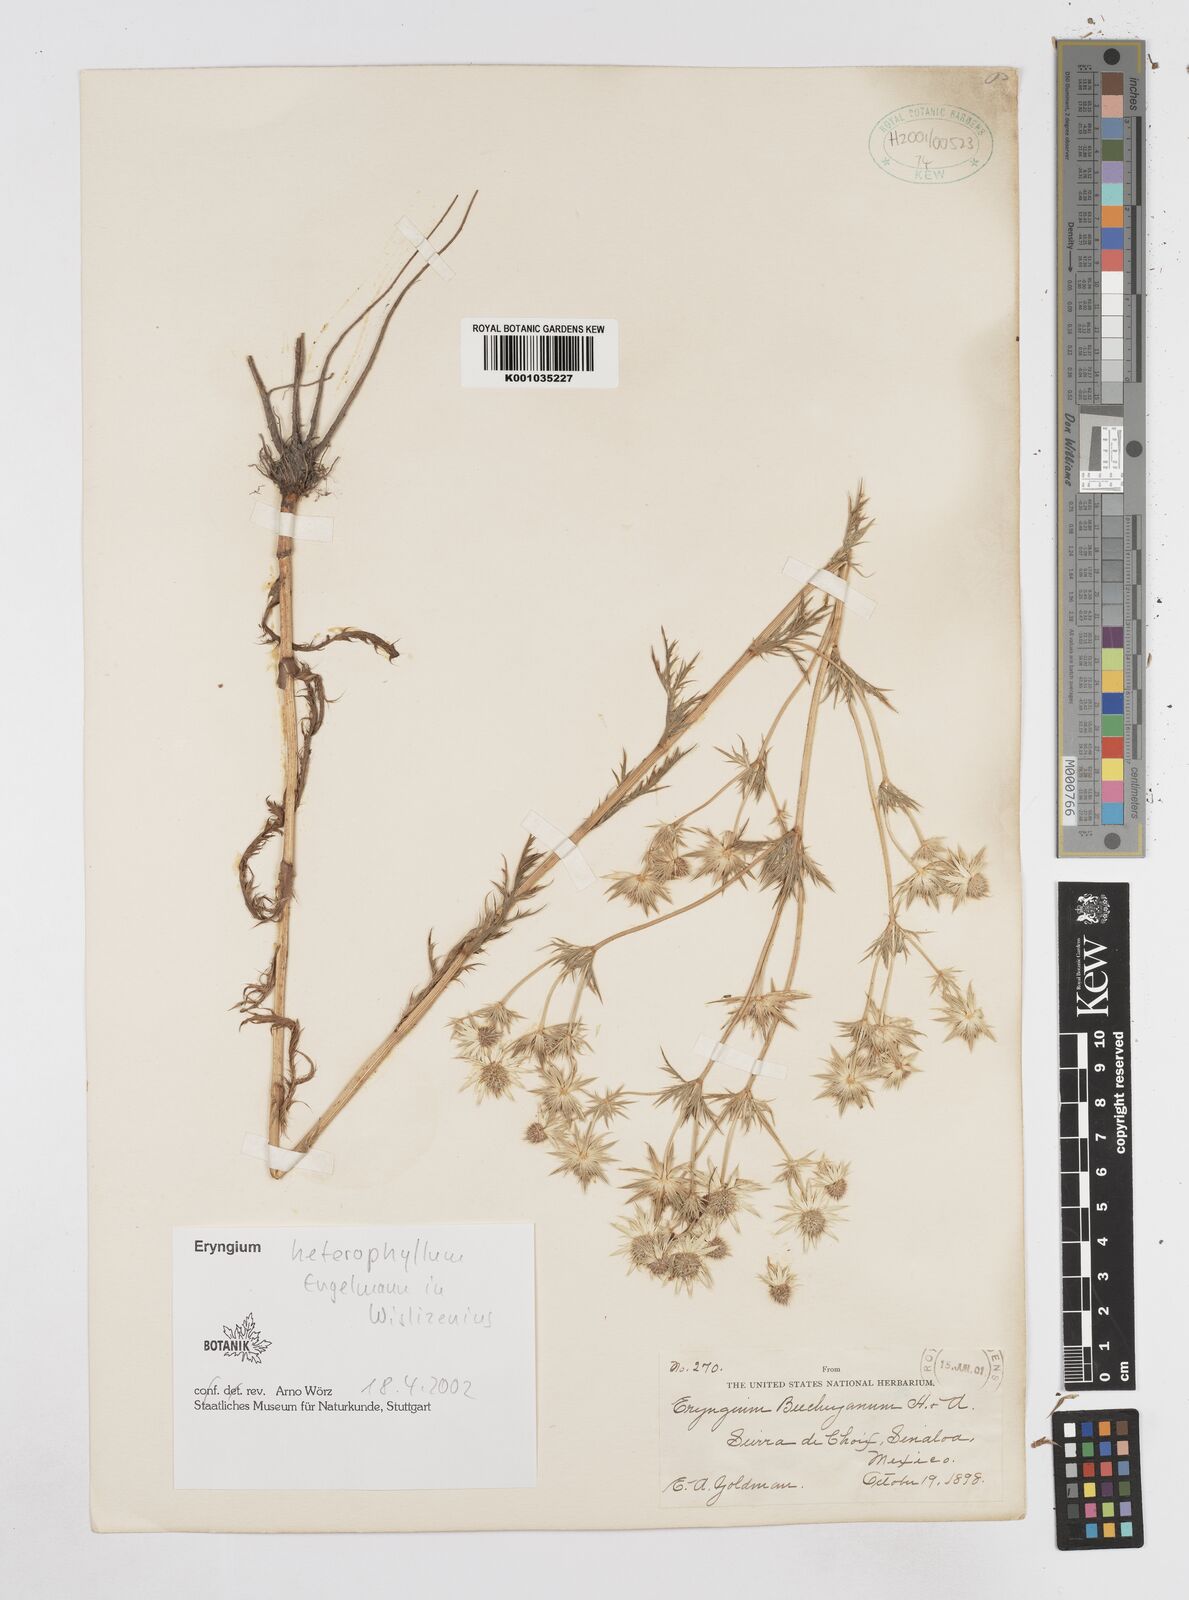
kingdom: Plantae
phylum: Tracheophyta
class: Magnoliopsida
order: Apiales
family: Apiaceae
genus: Eryngium
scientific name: Eryngium heterophyllum
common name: Mexican thistle
